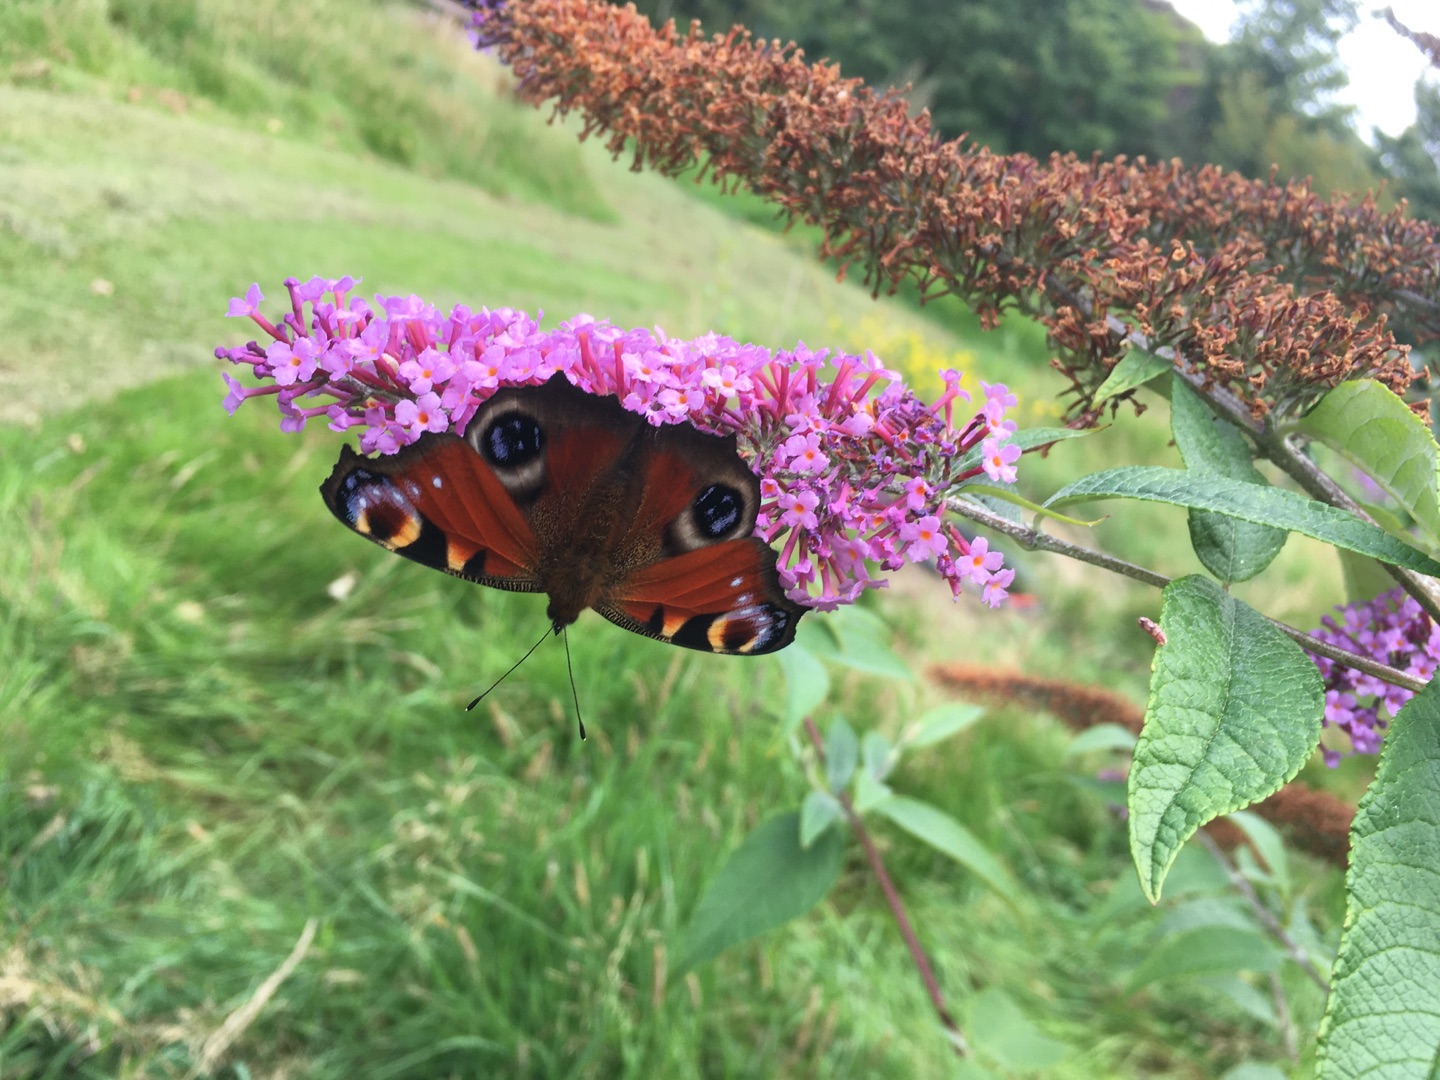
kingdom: Animalia
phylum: Arthropoda
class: Insecta
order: Lepidoptera
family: Nymphalidae
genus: Aglais
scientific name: Aglais io
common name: Dagpåfugleøje
